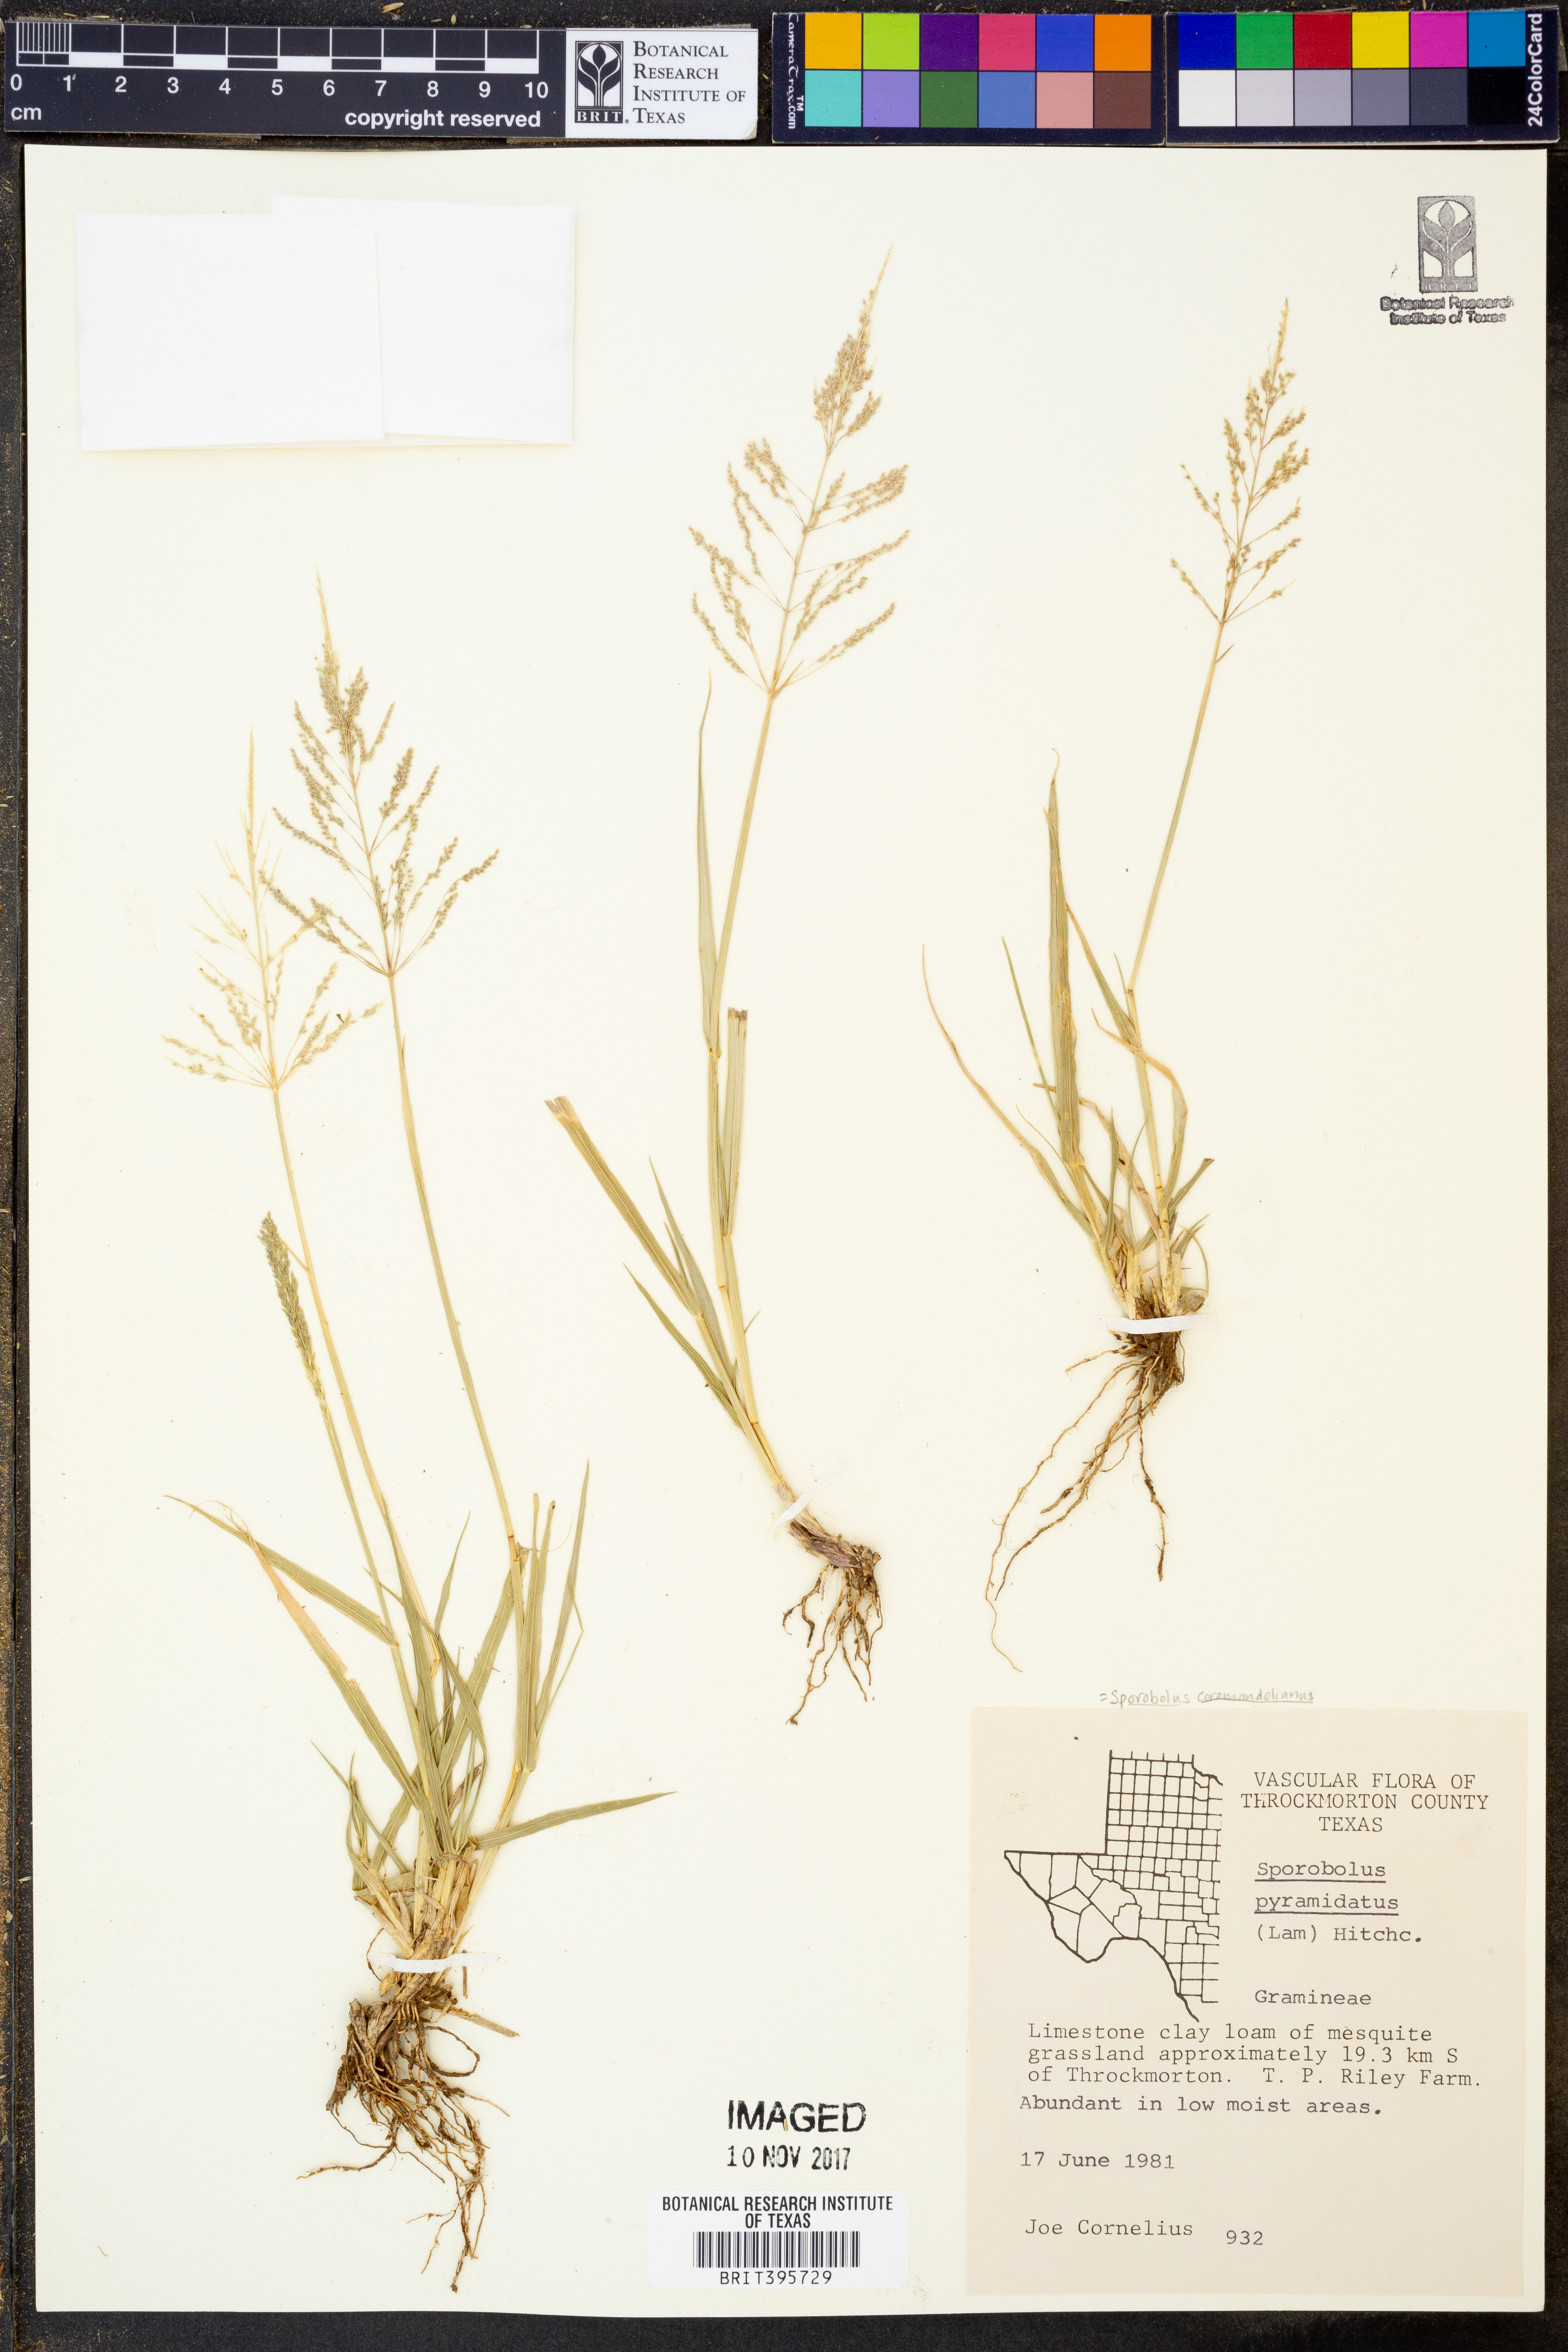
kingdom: Plantae
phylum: Tracheophyta
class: Liliopsida
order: Poales
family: Poaceae
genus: Sporobolus
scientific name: Sporobolus coromandelianus
